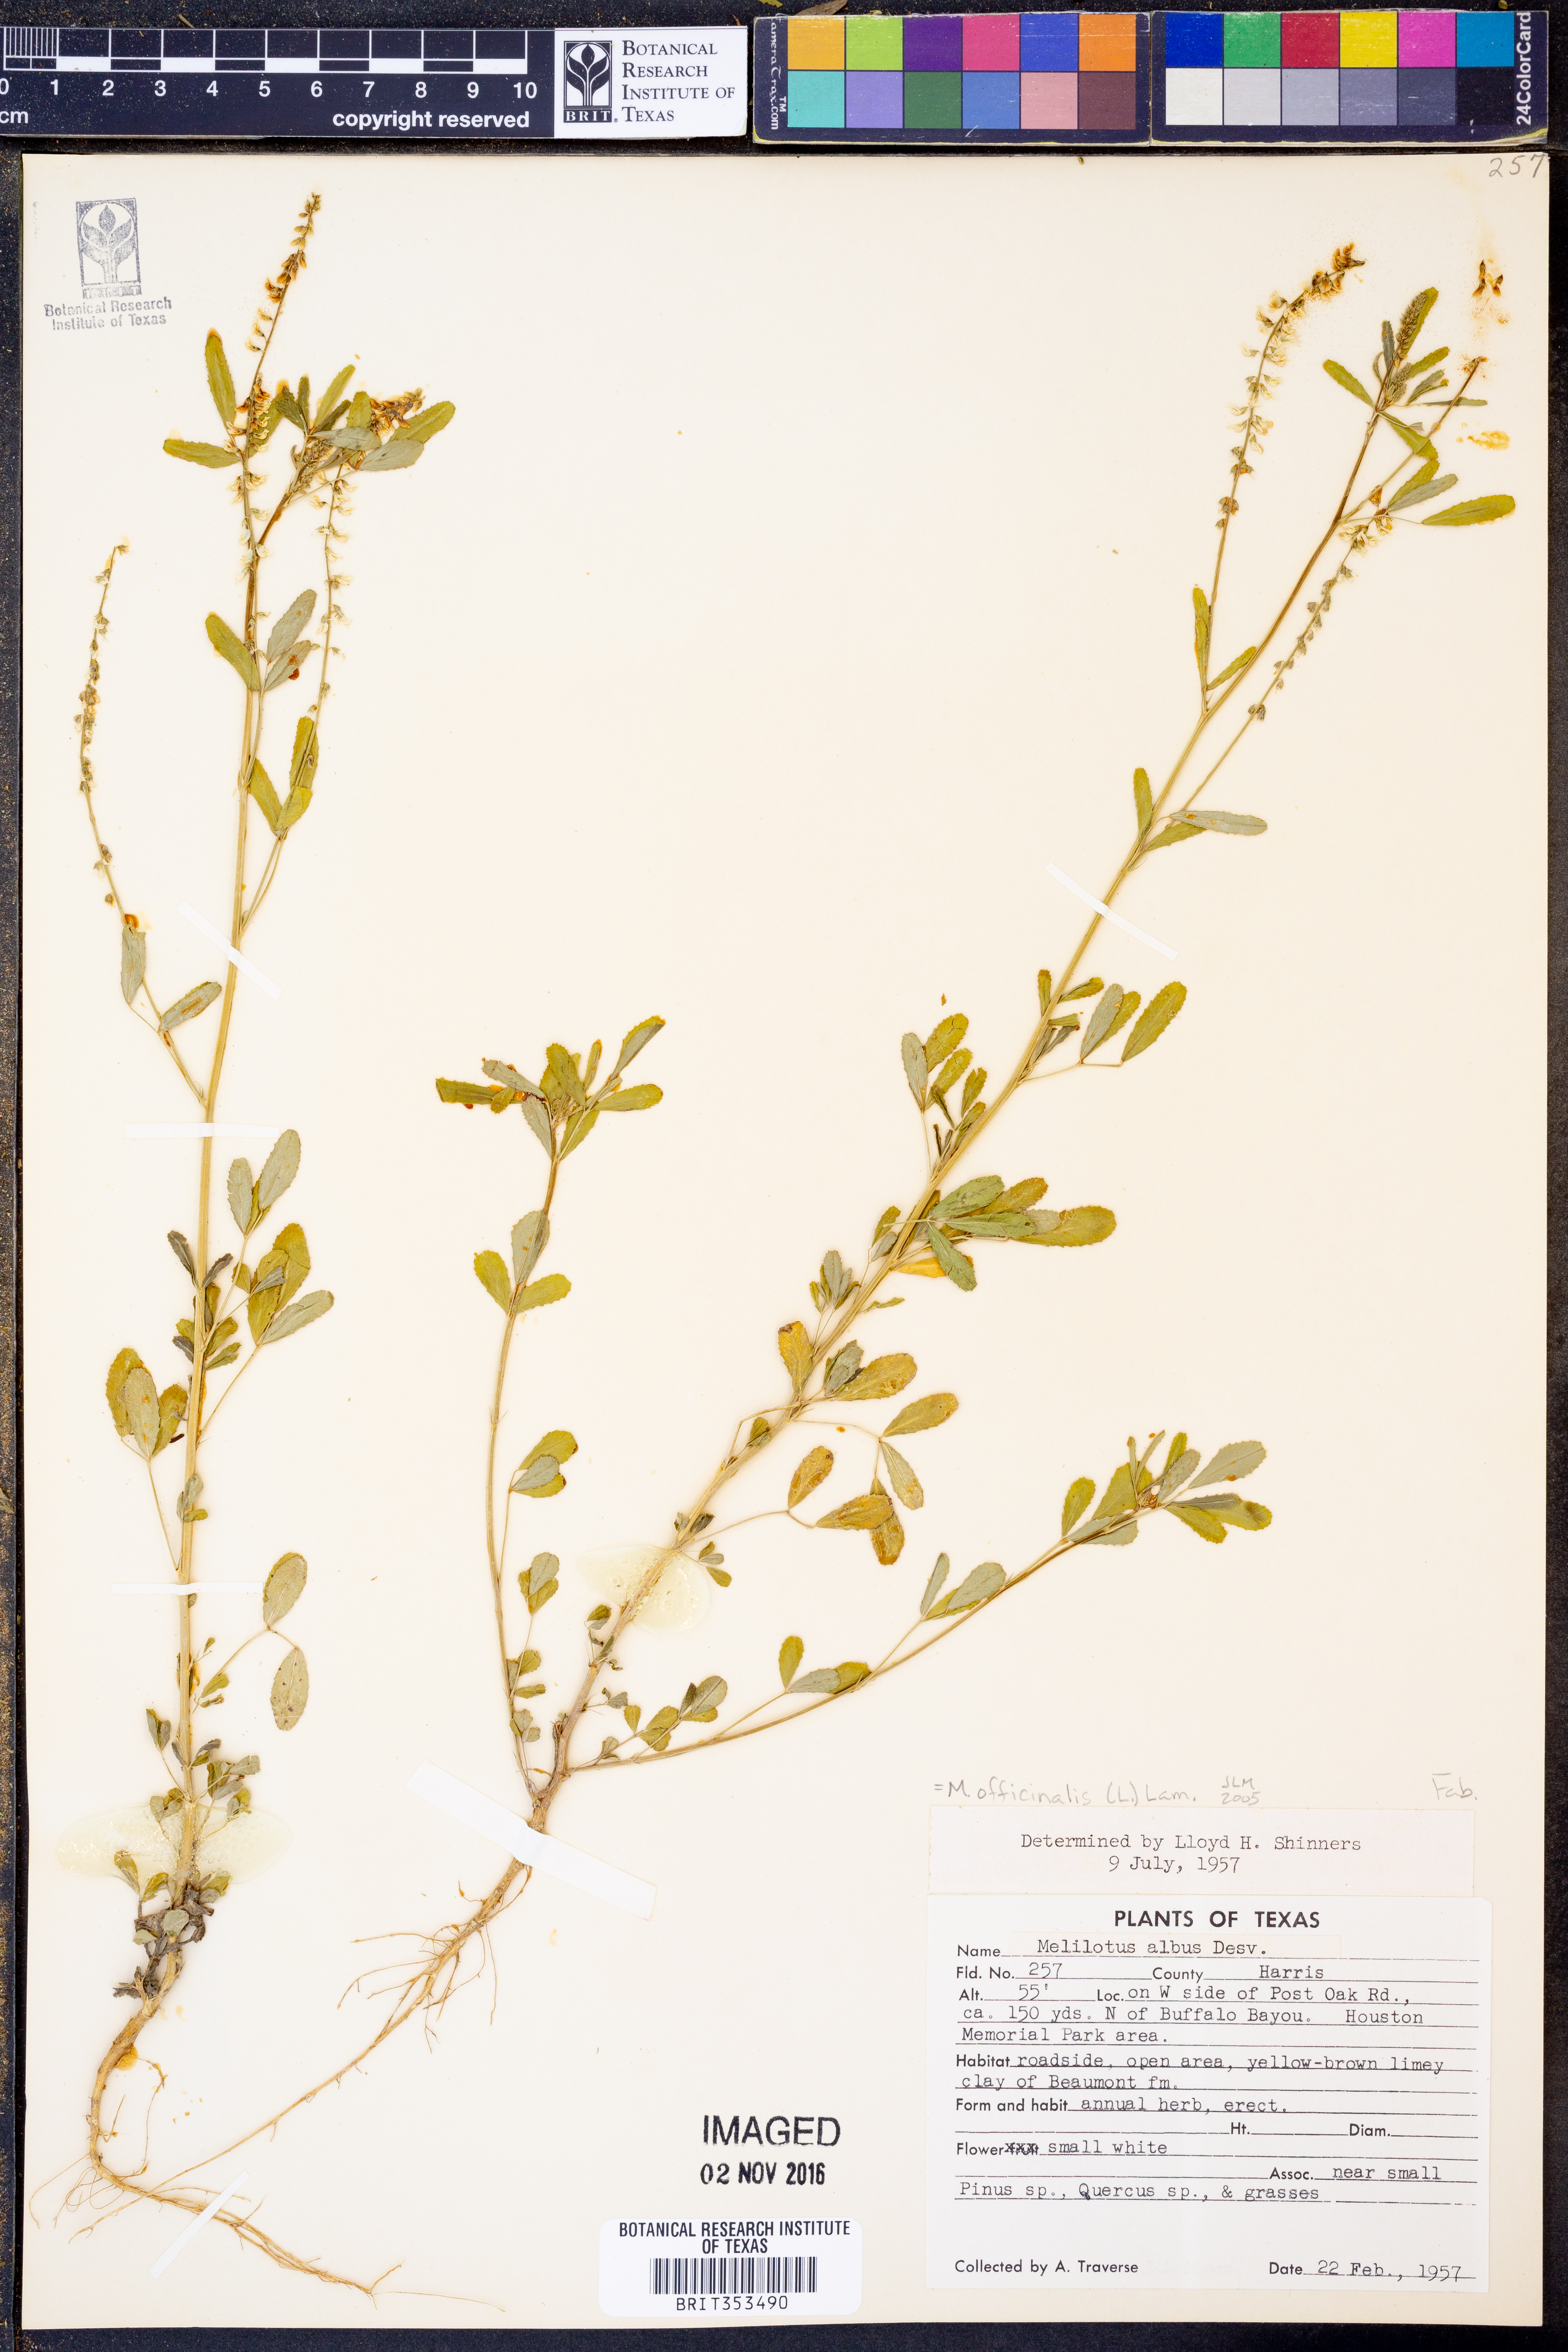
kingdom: Plantae
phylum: Tracheophyta
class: Magnoliopsida
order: Fabales
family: Fabaceae
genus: Melilotus
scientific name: Melilotus officinalis
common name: Sweetclover
